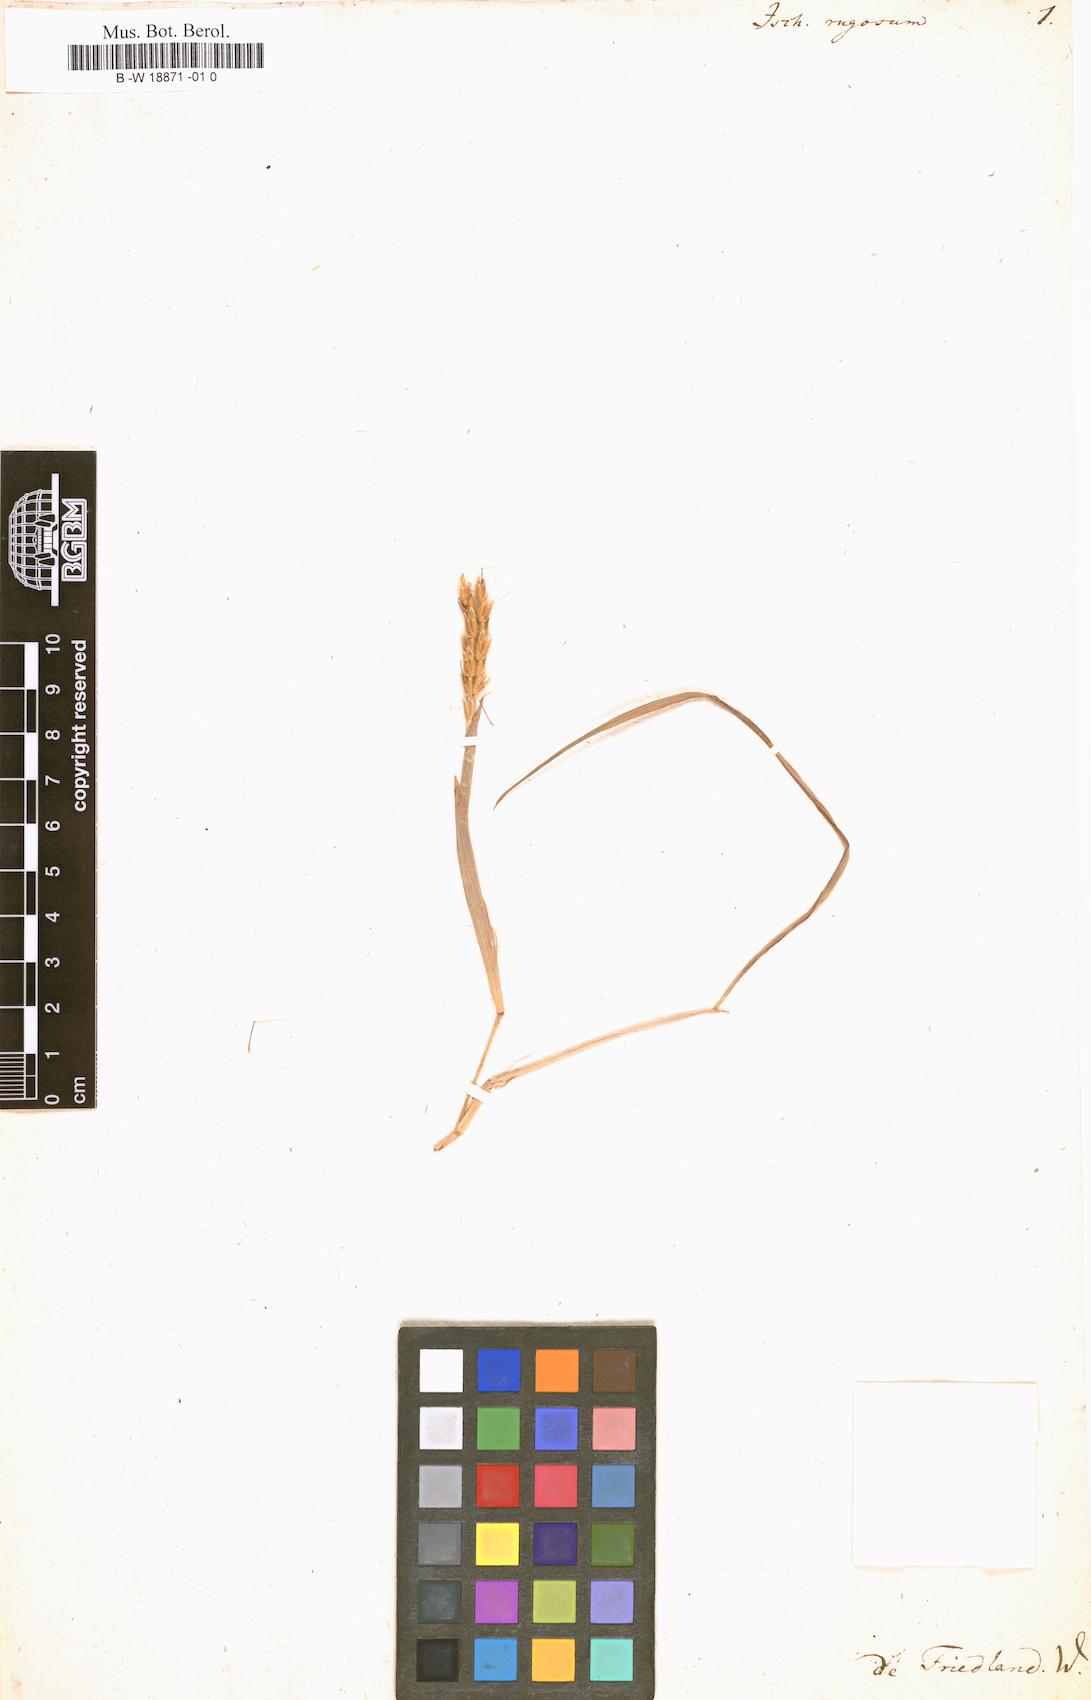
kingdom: Plantae
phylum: Tracheophyta
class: Liliopsida
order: Poales
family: Poaceae
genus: Ischaemum
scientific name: Ischaemum rugosum
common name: Saramatta grass
